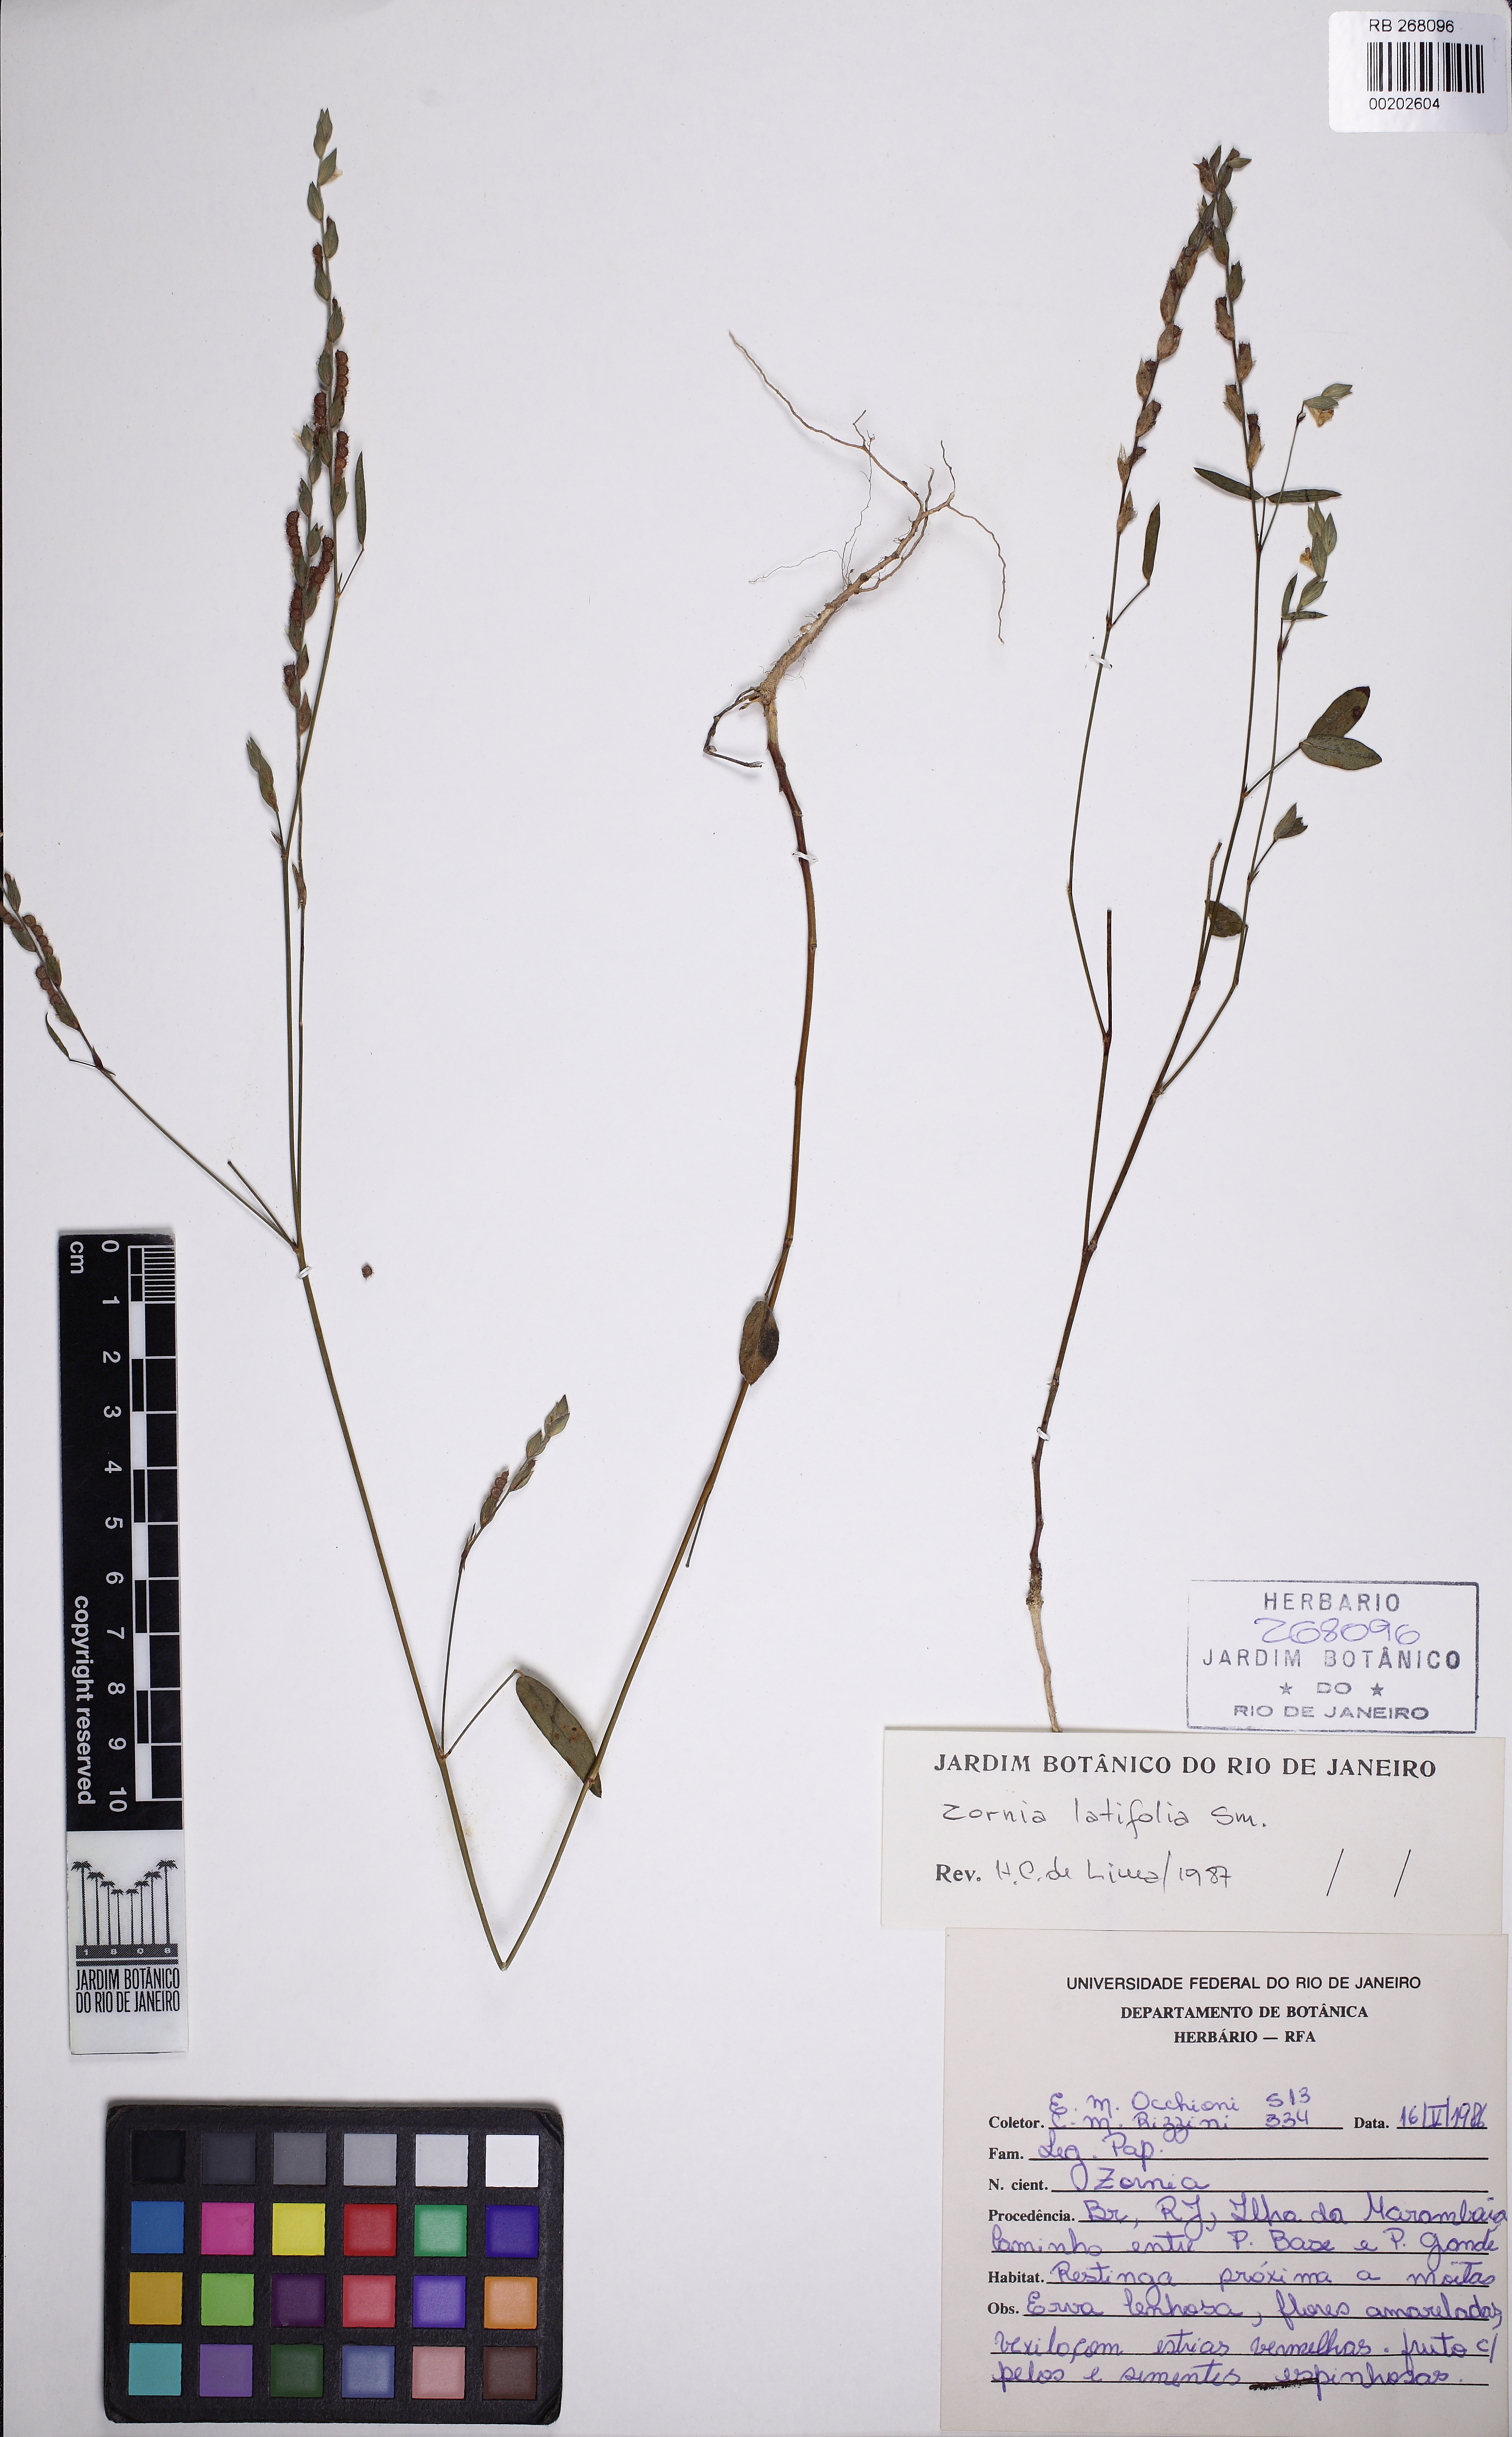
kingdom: Plantae
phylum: Tracheophyta
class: Magnoliopsida
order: Fabales
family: Fabaceae
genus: Zornia
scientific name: Zornia latifolia
